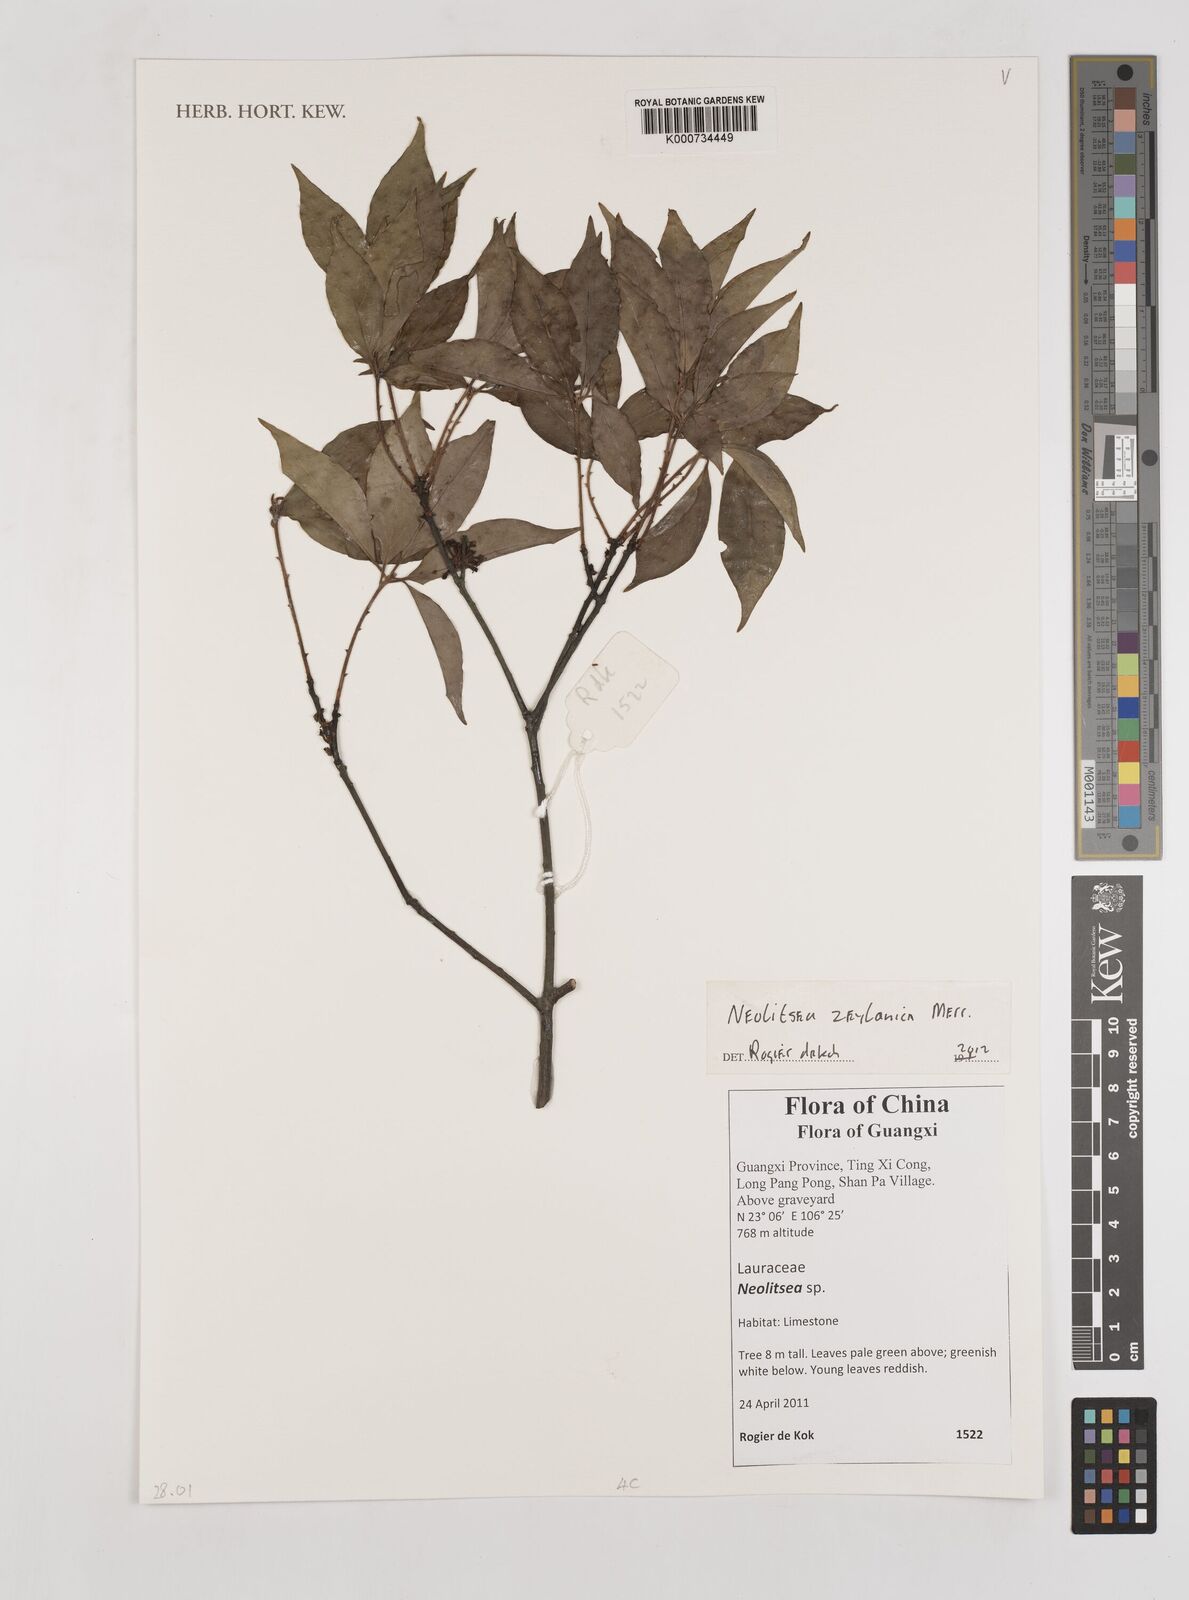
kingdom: Plantae
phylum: Tracheophyta
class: Magnoliopsida
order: Laurales
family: Lauraceae
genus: Neolitsea
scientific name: Neolitsea foliosa
